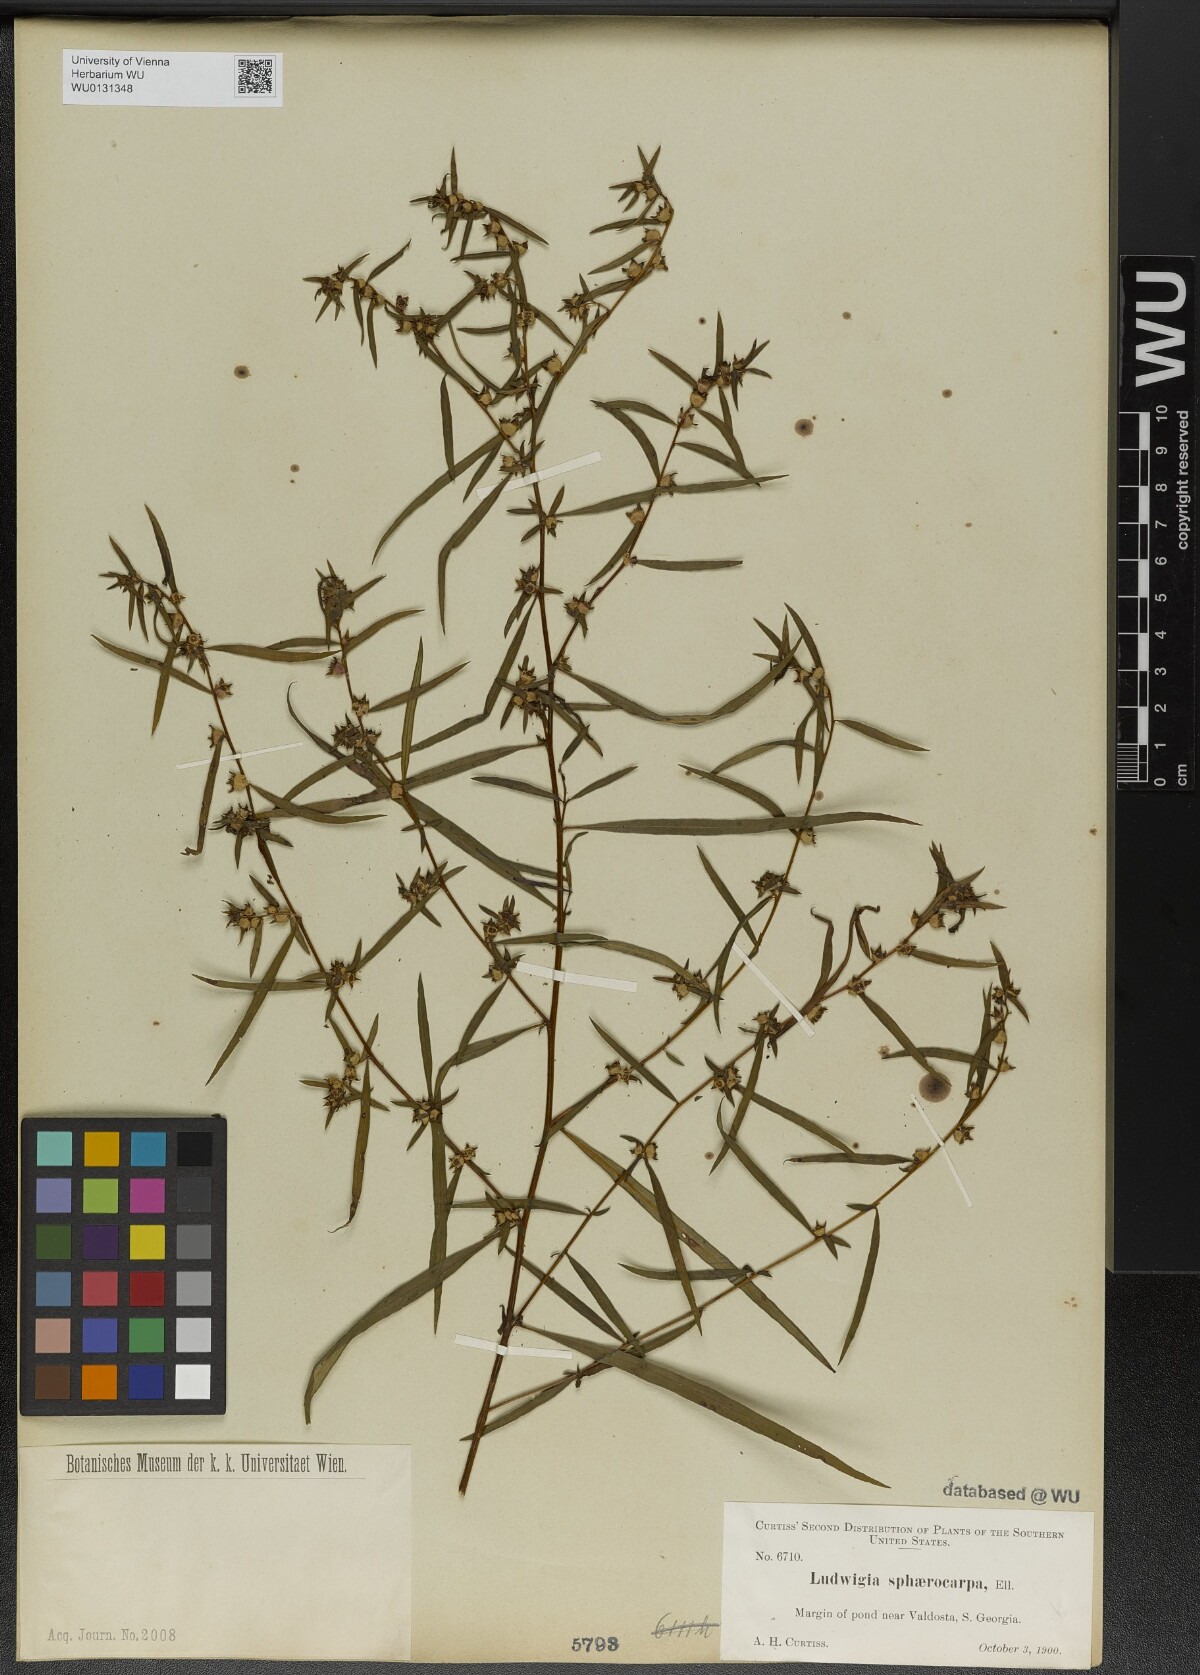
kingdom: Plantae
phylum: Tracheophyta
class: Magnoliopsida
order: Myrtales
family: Onagraceae
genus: Ludwigia
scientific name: Ludwigia sphaerocarpa
